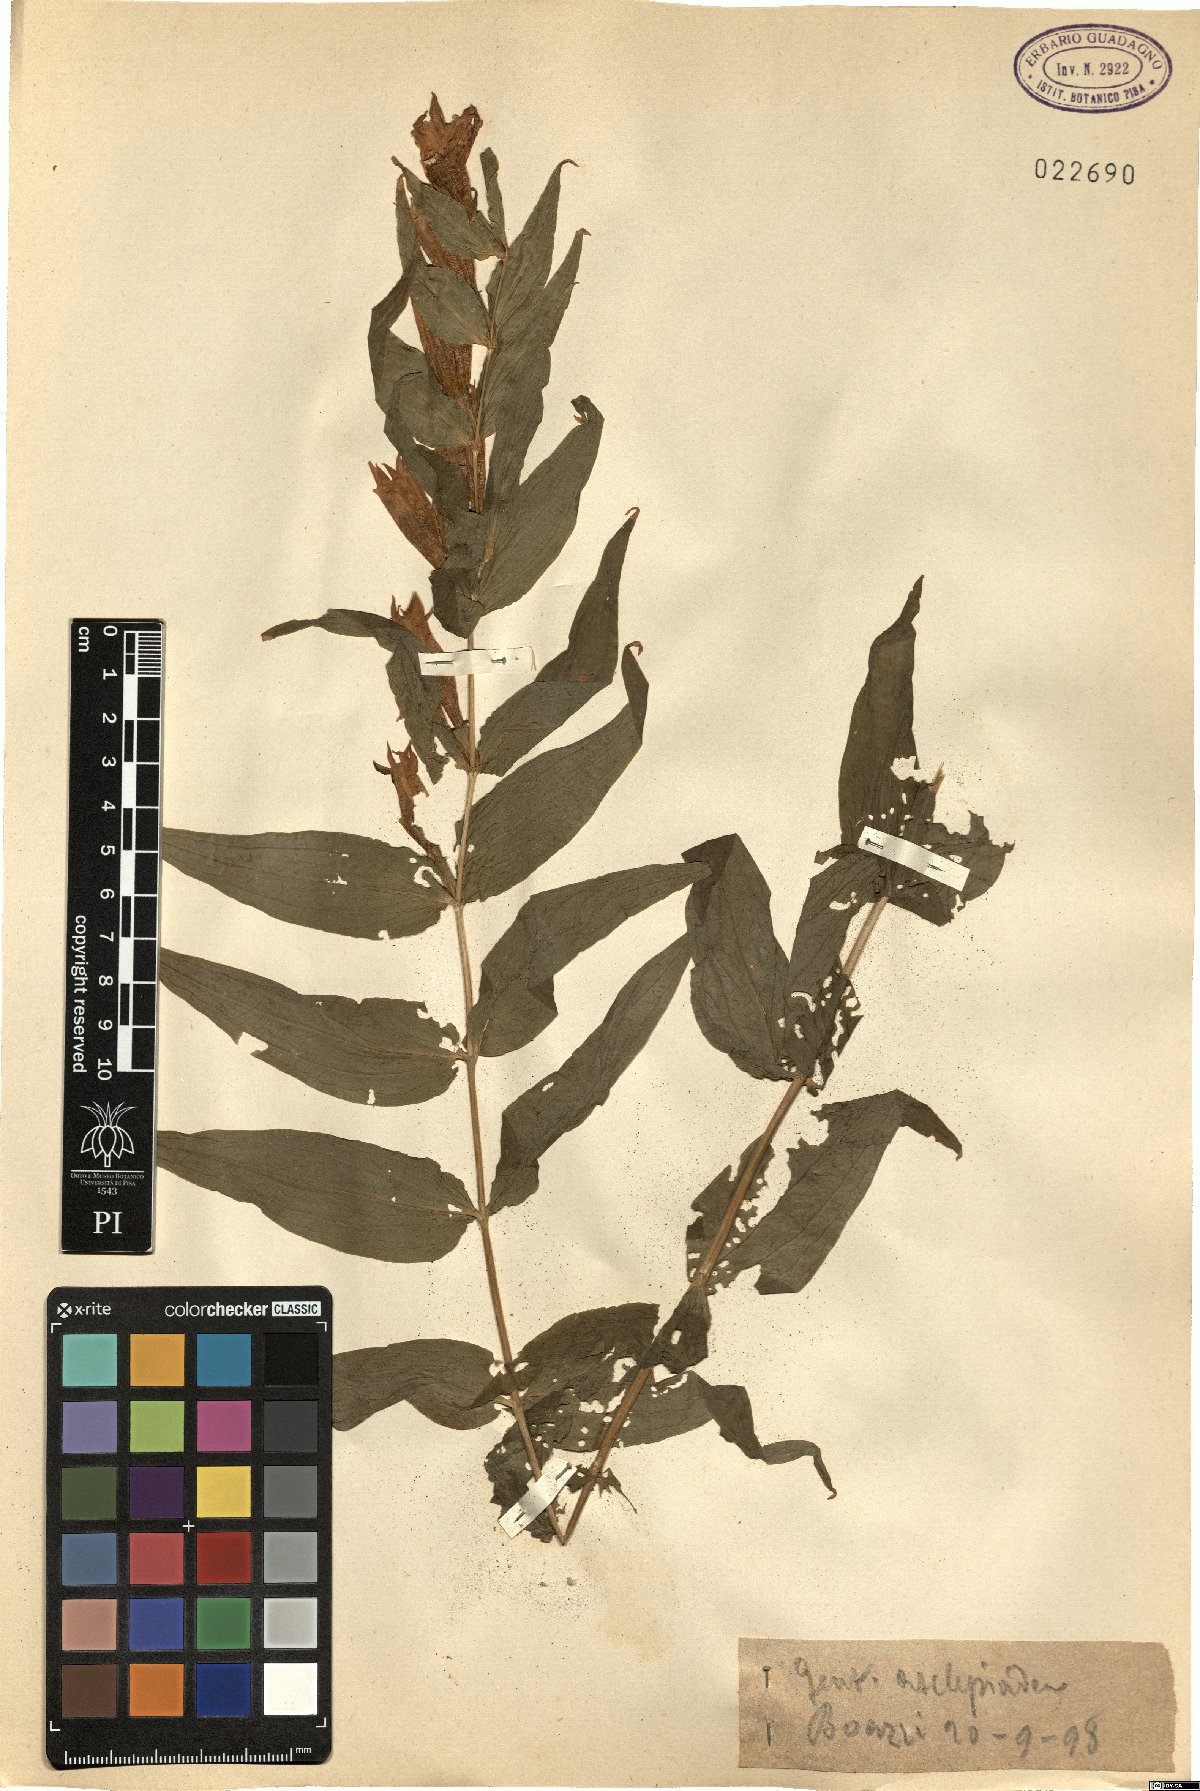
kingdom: Plantae
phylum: Tracheophyta
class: Magnoliopsida
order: Gentianales
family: Gentianaceae
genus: Gentiana
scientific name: Gentiana asclepiadea
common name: Willow gentian
